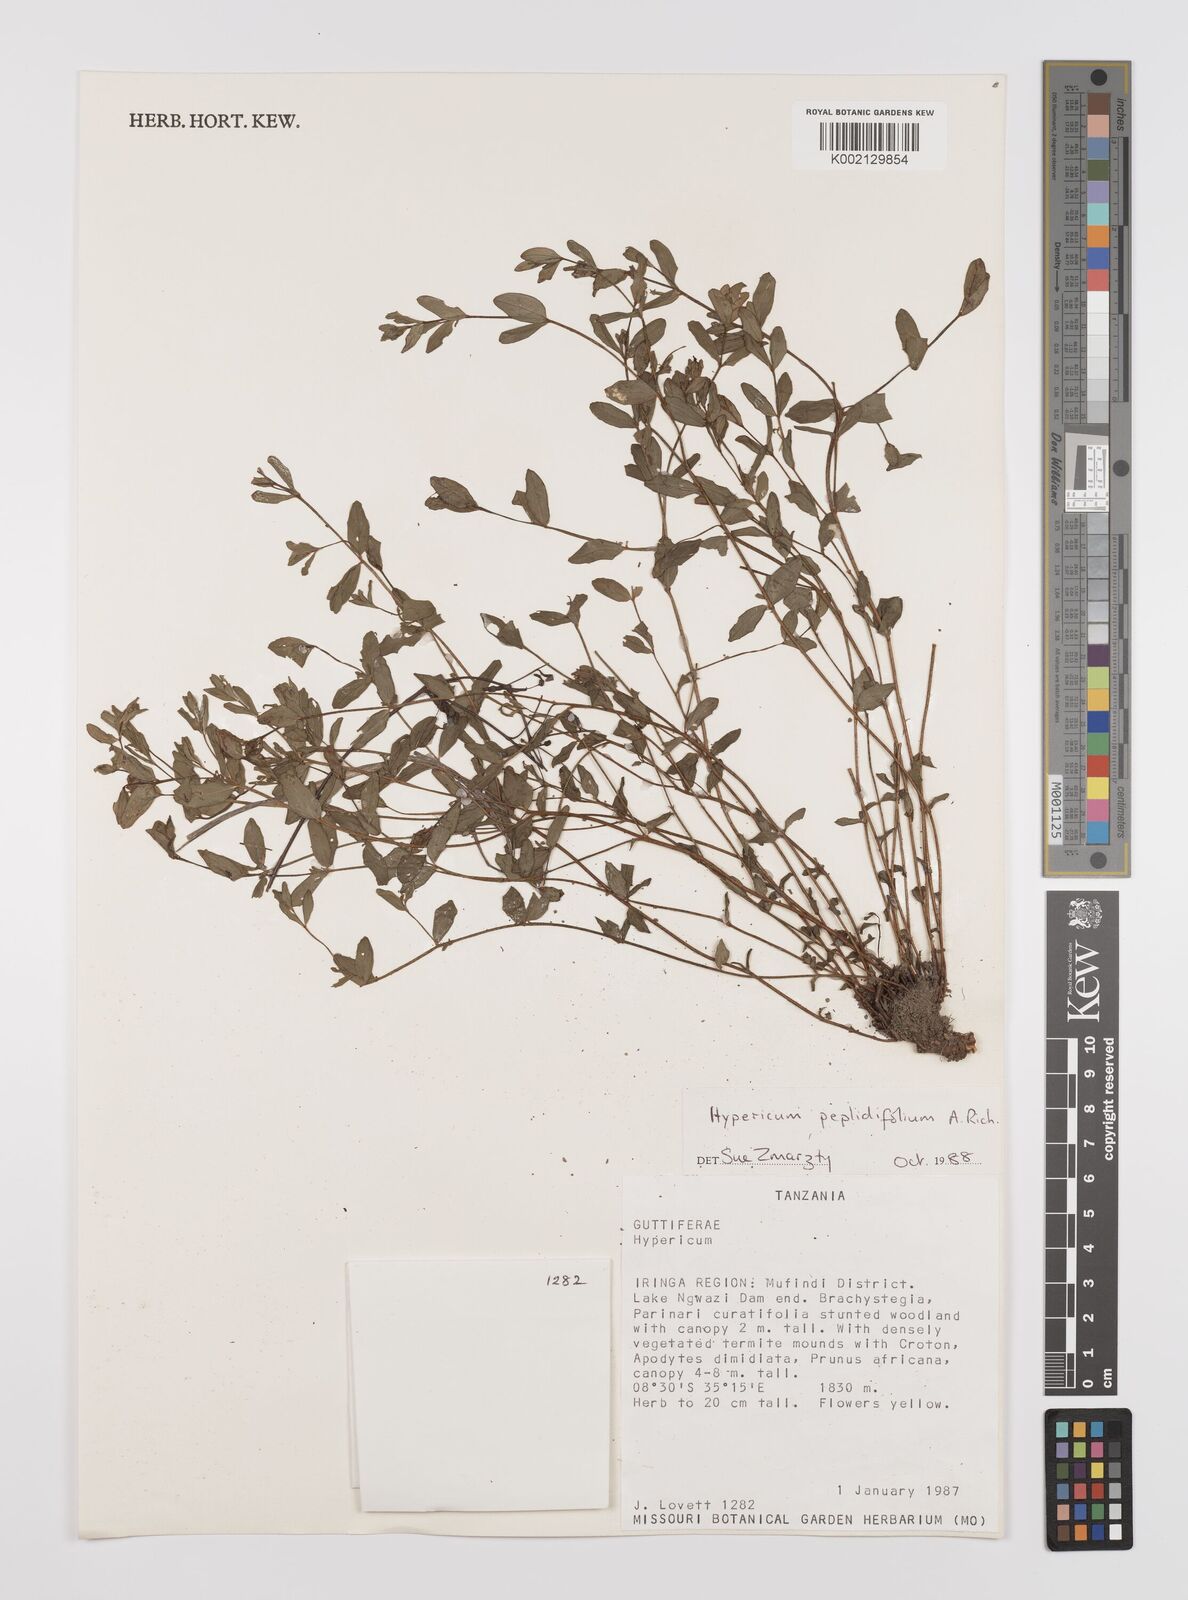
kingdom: Plantae
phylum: Tracheophyta
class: Magnoliopsida
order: Malpighiales
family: Hypericaceae
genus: Hypericum
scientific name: Hypericum peplidifolium
